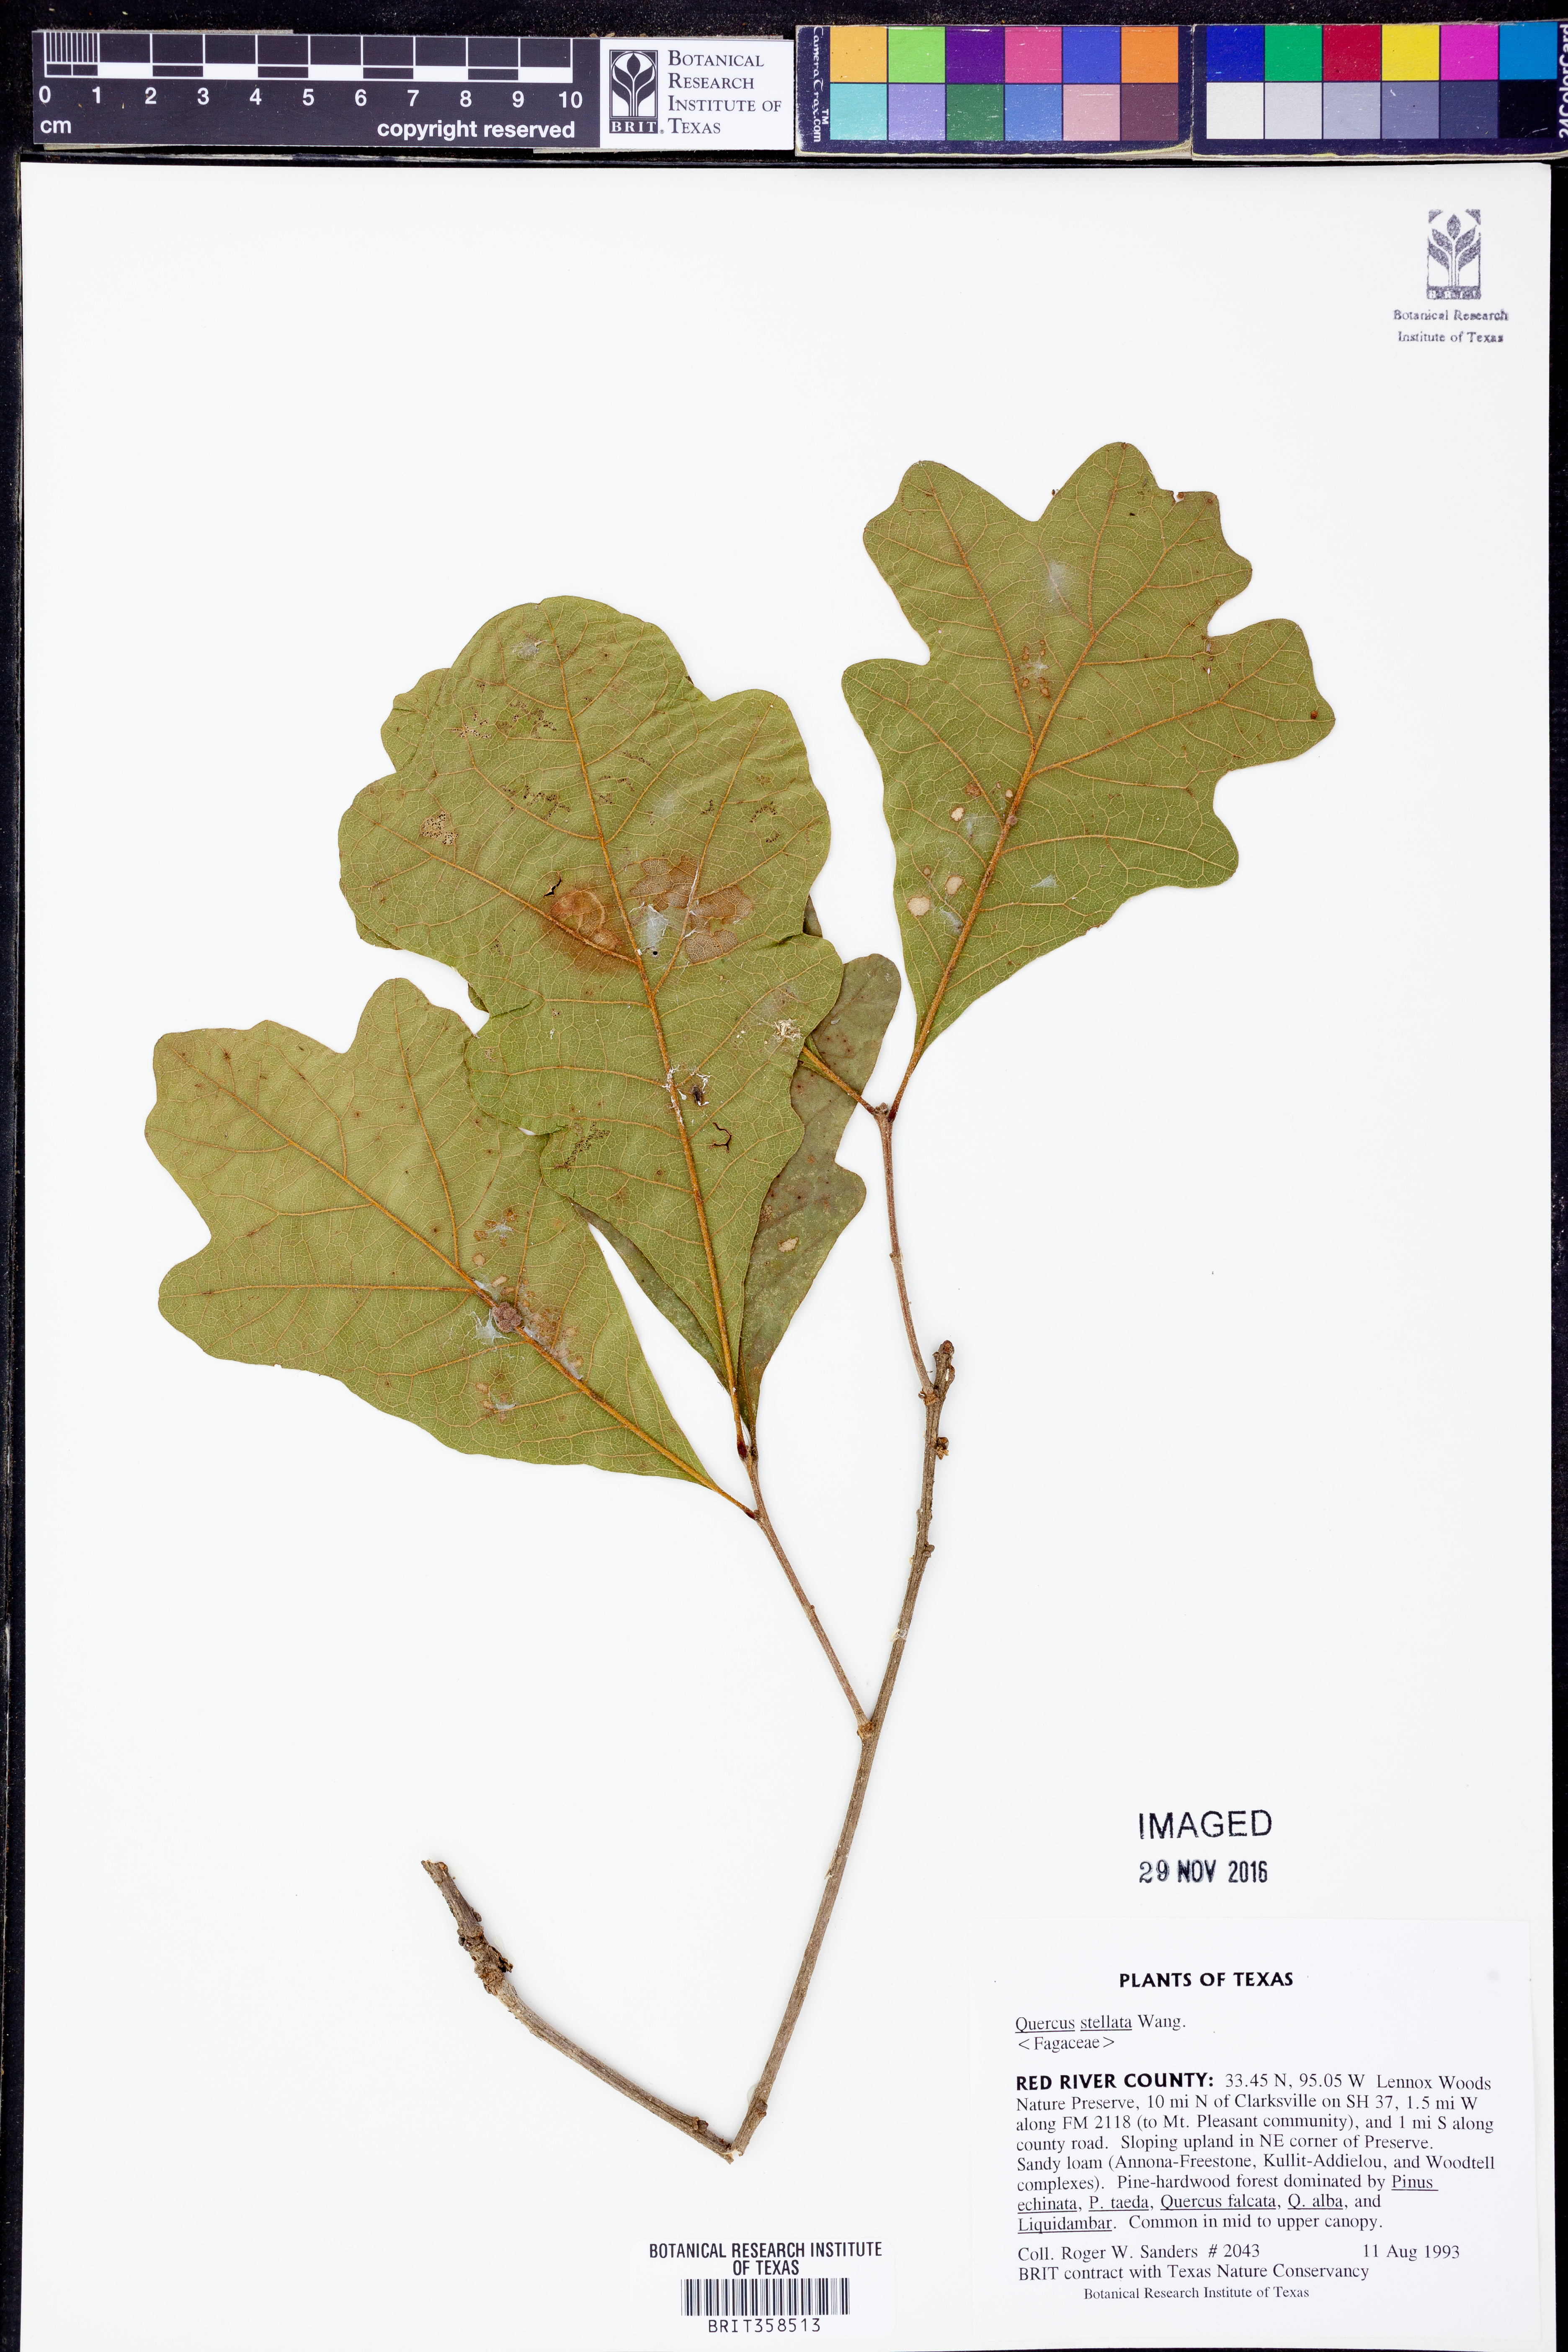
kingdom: Plantae
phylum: Tracheophyta
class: Magnoliopsida
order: Fagales
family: Fagaceae
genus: Quercus
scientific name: Quercus stellata
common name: Post oak
